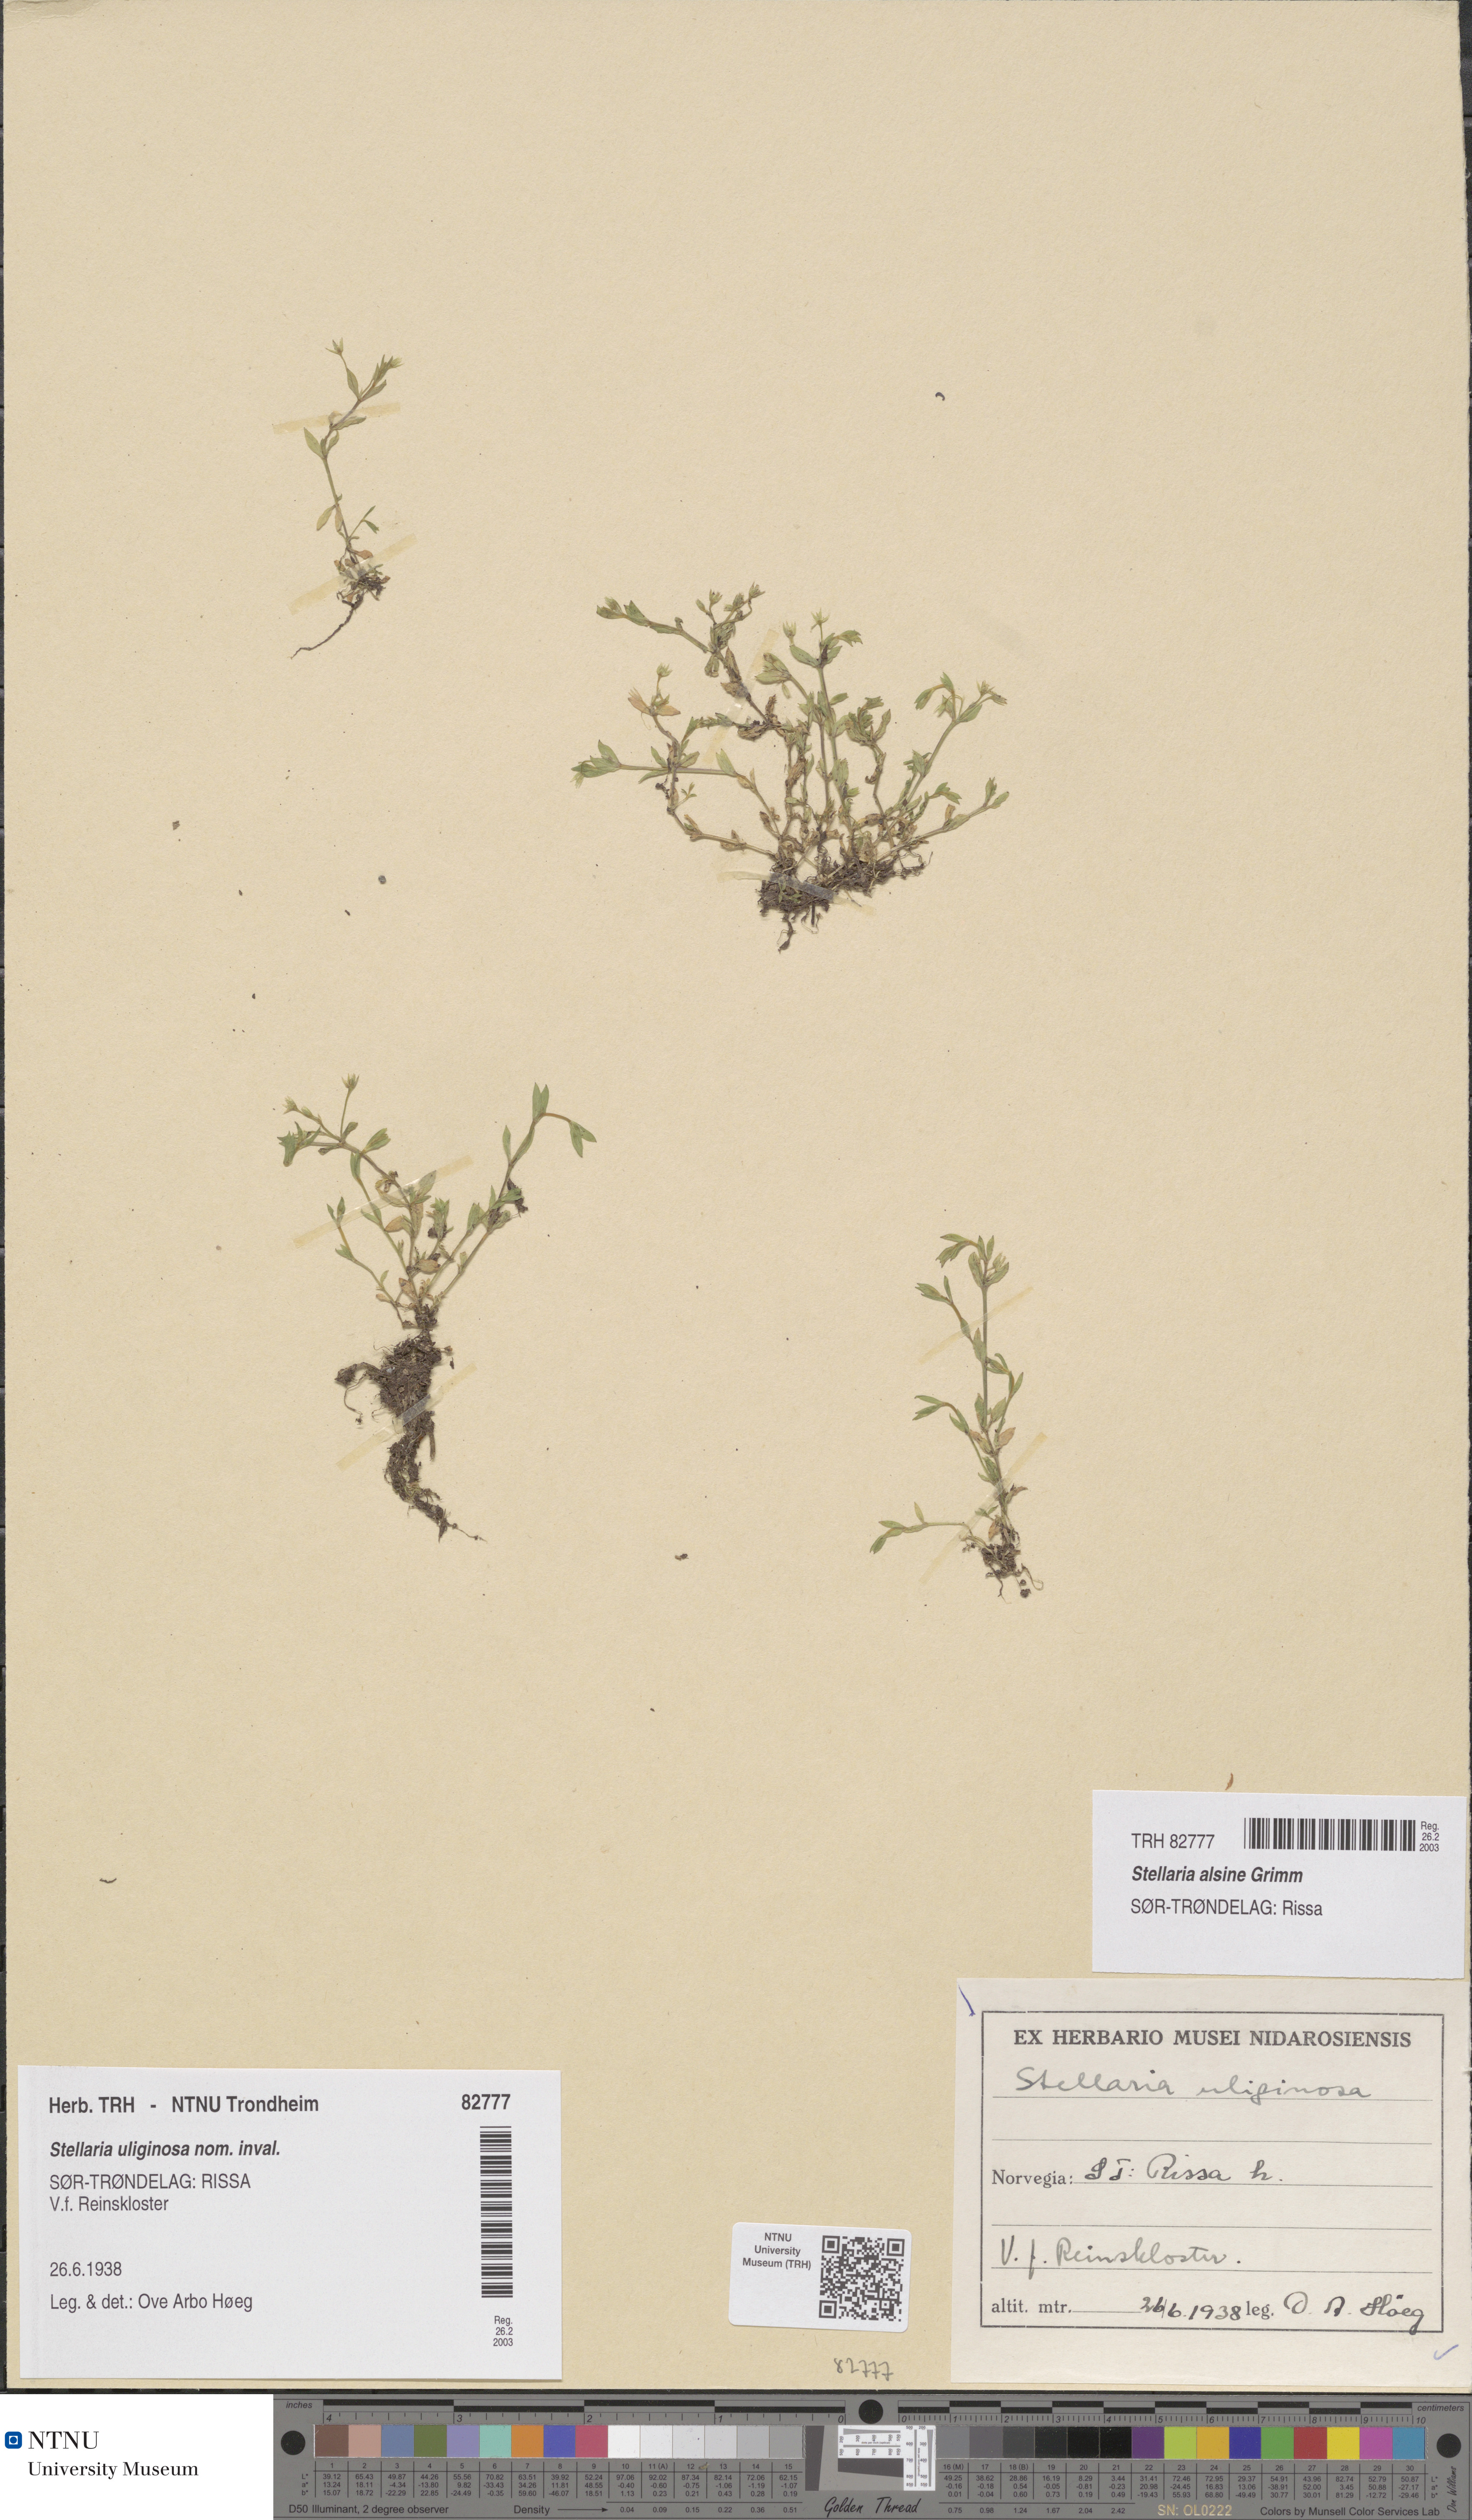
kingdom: Plantae
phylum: Tracheophyta
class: Magnoliopsida
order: Caryophyllales
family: Caryophyllaceae
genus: Stellaria
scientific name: Stellaria alsine
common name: Bog stitchwort
